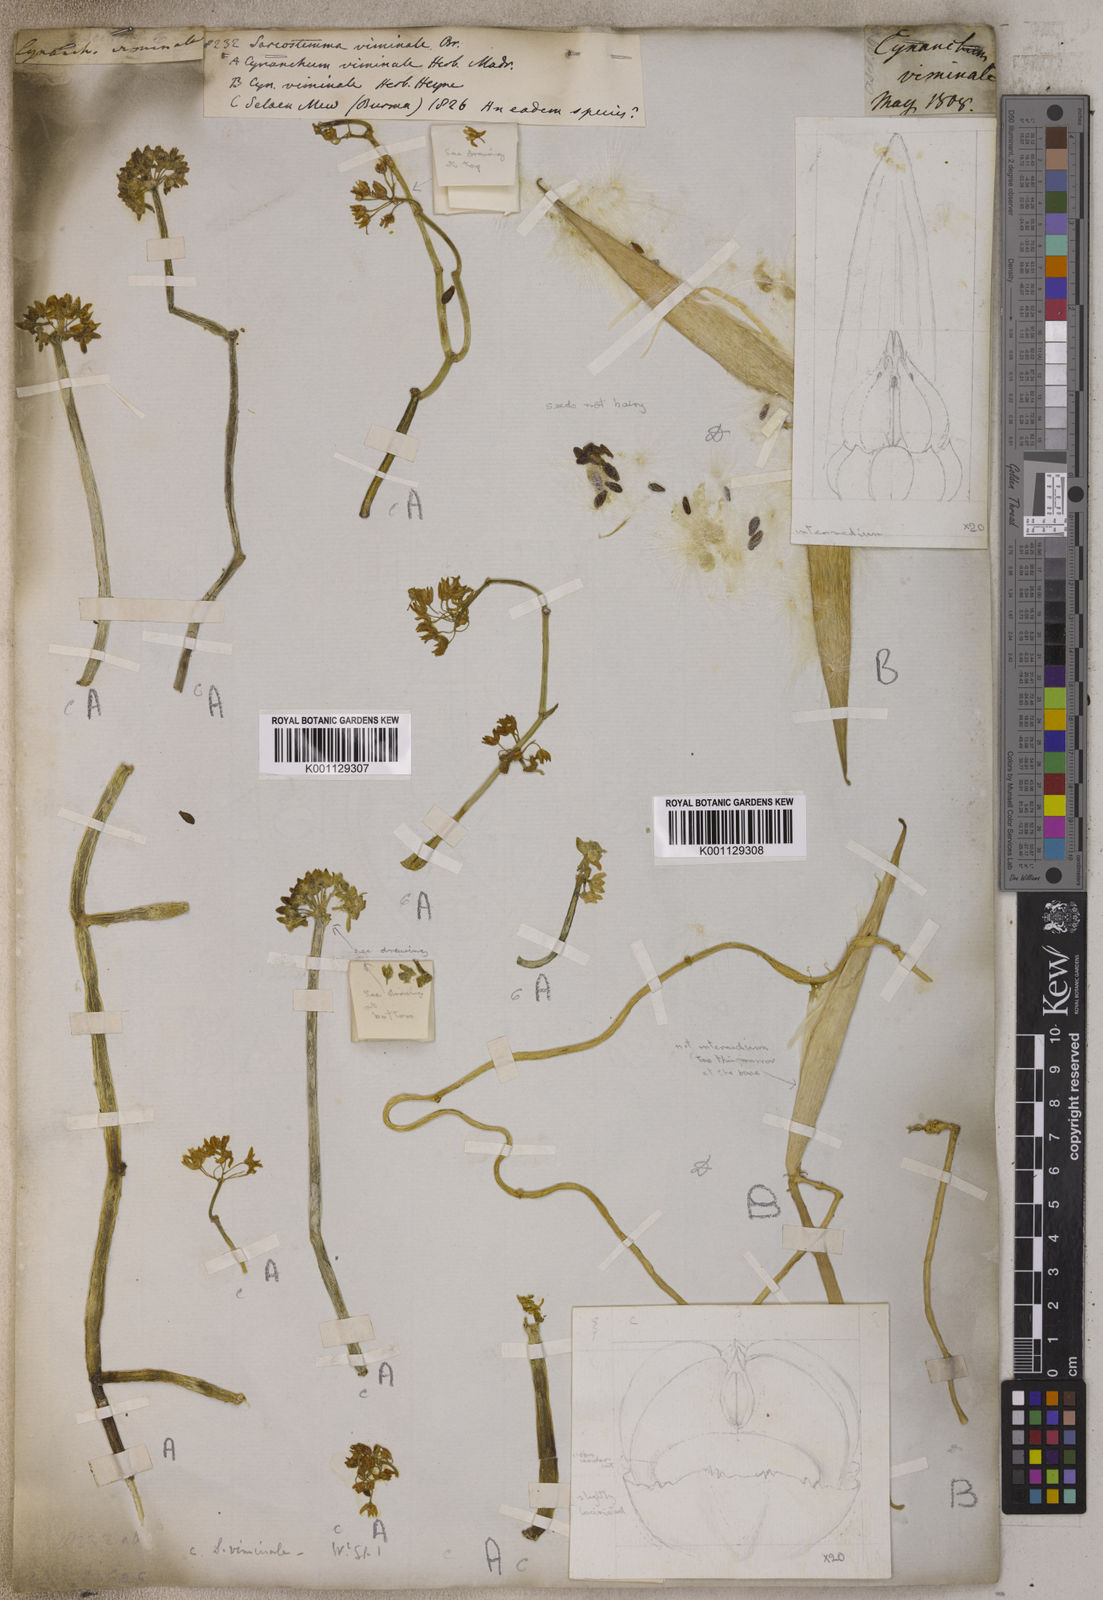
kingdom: Plantae
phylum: Tracheophyta
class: Magnoliopsida
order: Gentianales
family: Apocynaceae
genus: Cynanchum
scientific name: Cynanchum viminale
